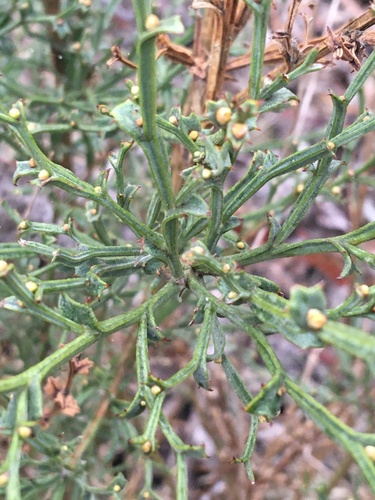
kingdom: Plantae
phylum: Tracheophyta
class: Magnoliopsida
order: Fabales
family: Fabaceae
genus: Genista
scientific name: Genista tridentata
